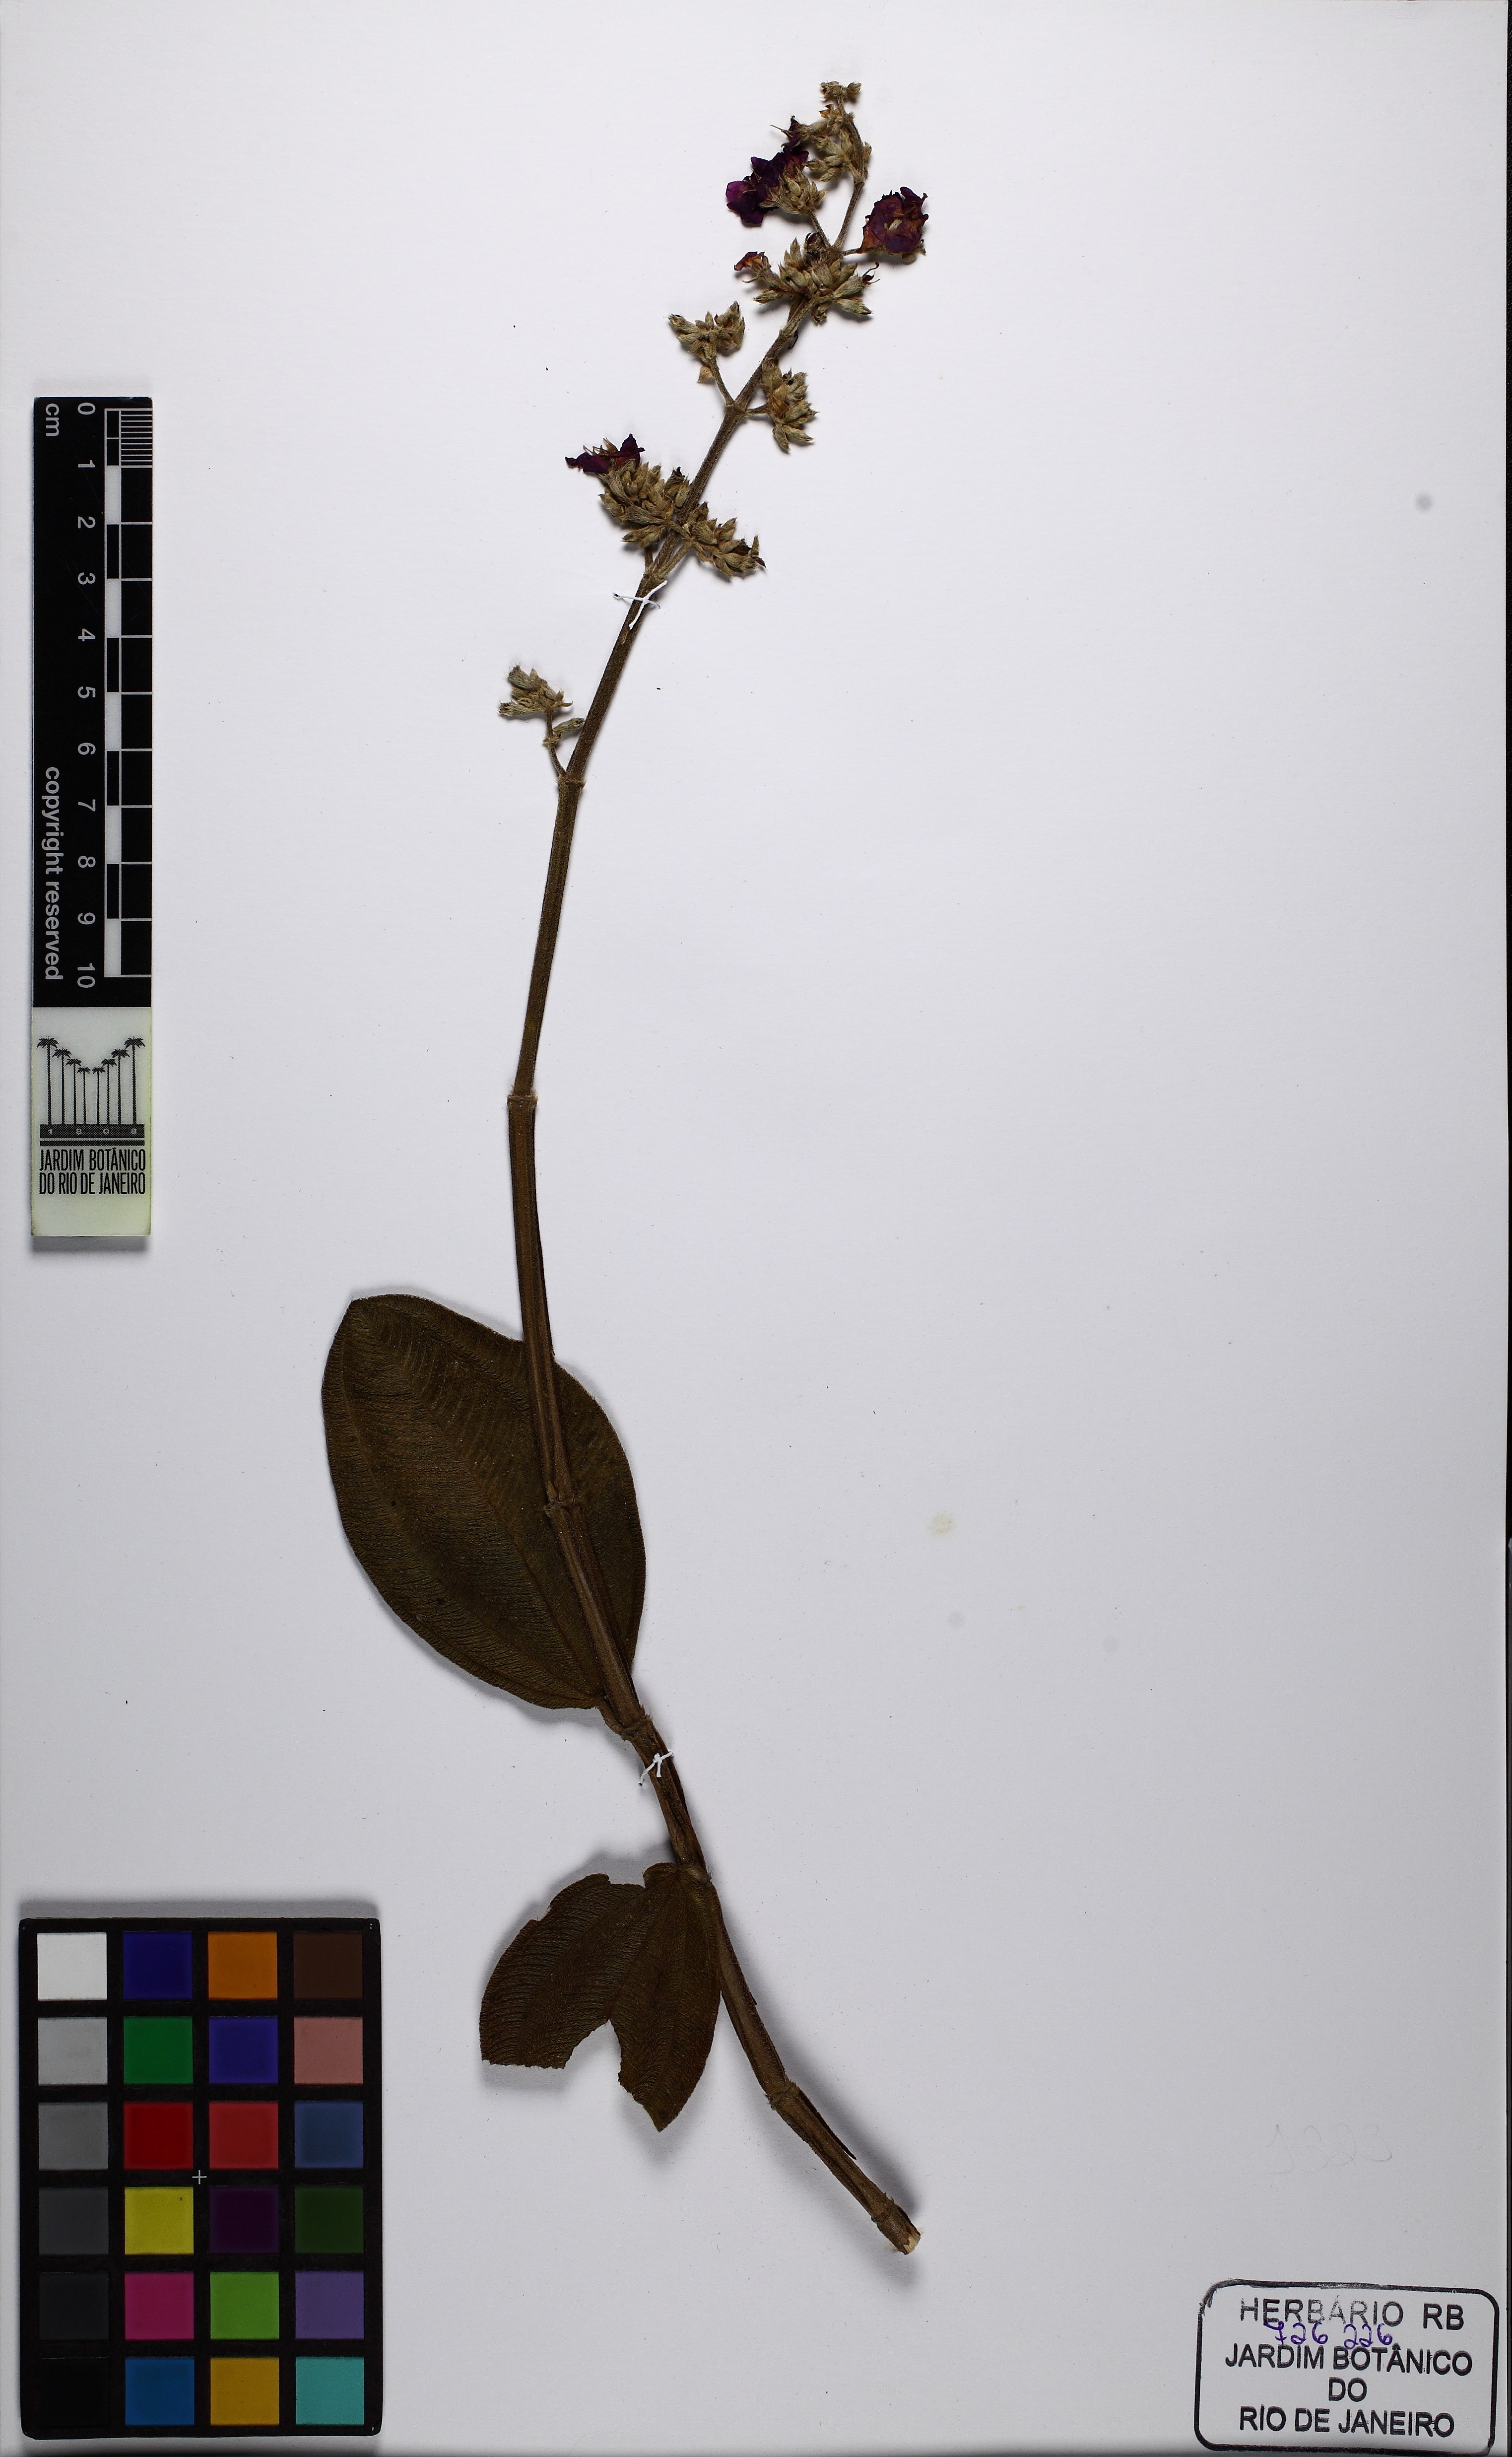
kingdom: Plantae
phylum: Tracheophyta
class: Magnoliopsida
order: Myrtales
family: Melastomataceae
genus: Pleroma
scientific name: Pleroma heteromallum
